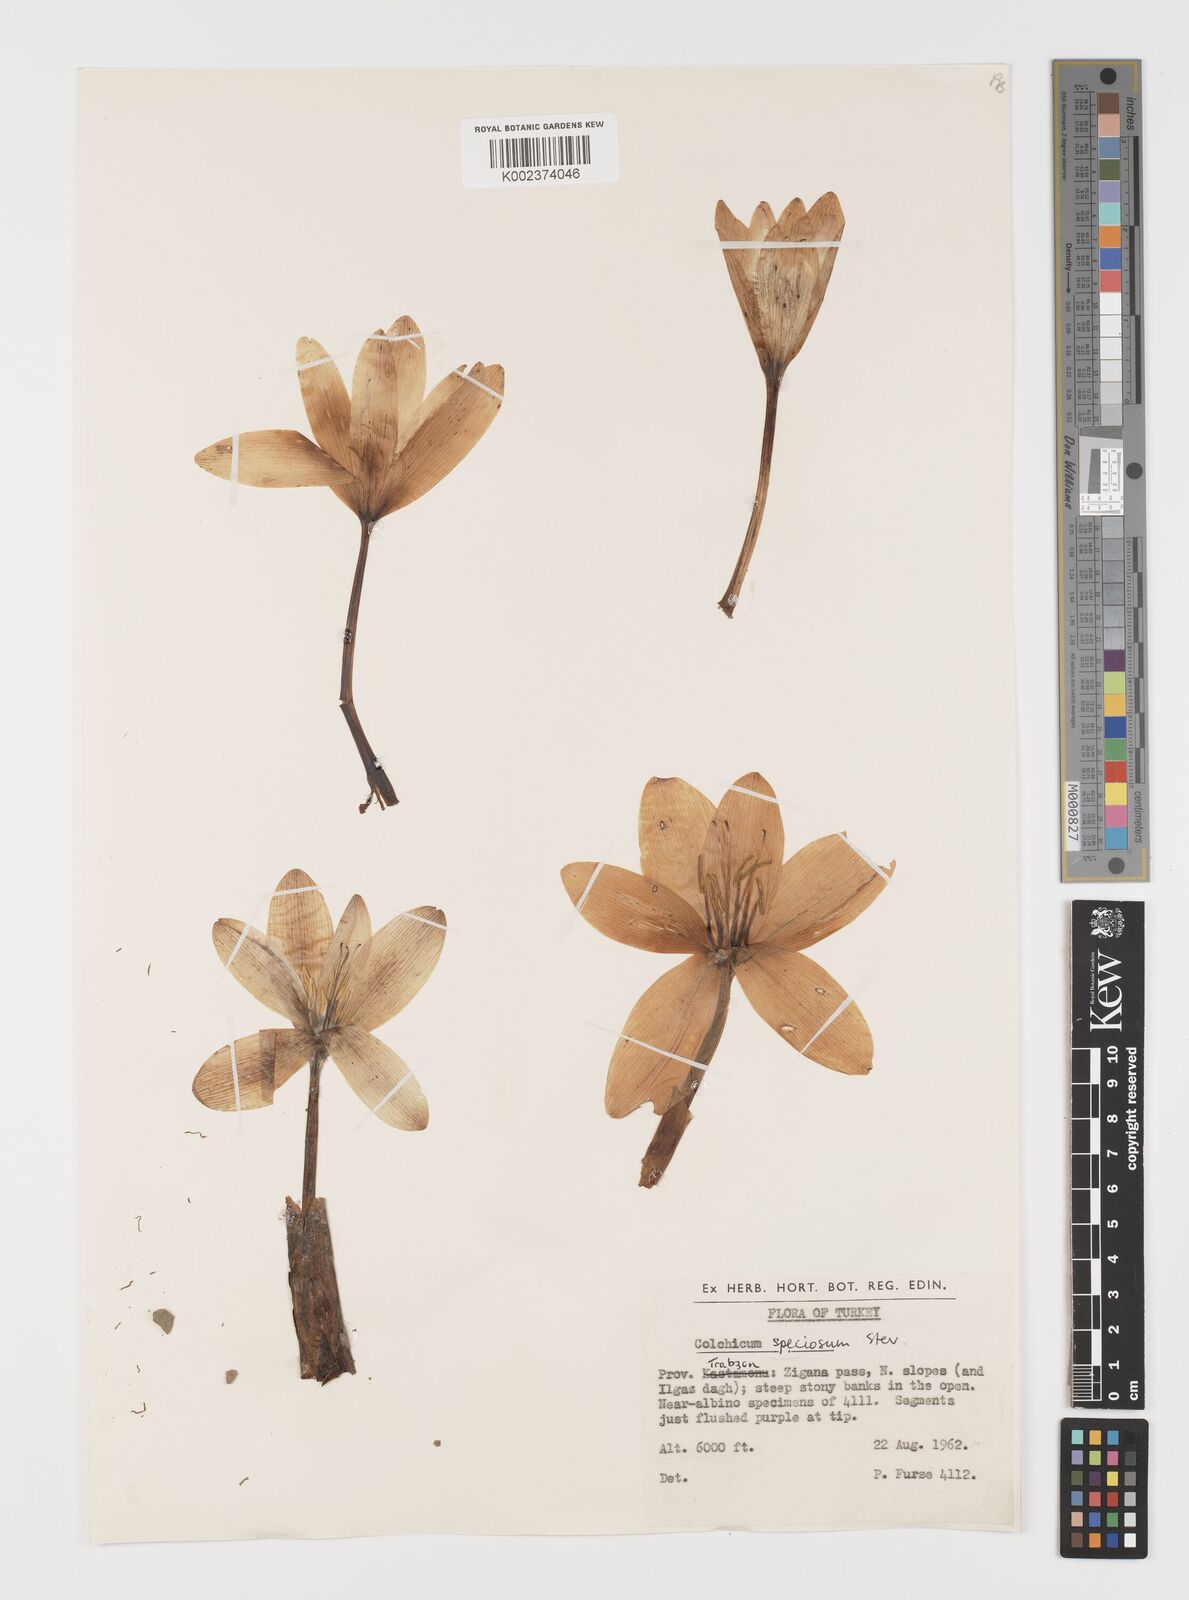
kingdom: Plantae
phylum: Tracheophyta
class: Liliopsida
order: Liliales
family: Colchicaceae
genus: Colchicum
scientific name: Colchicum speciosum
